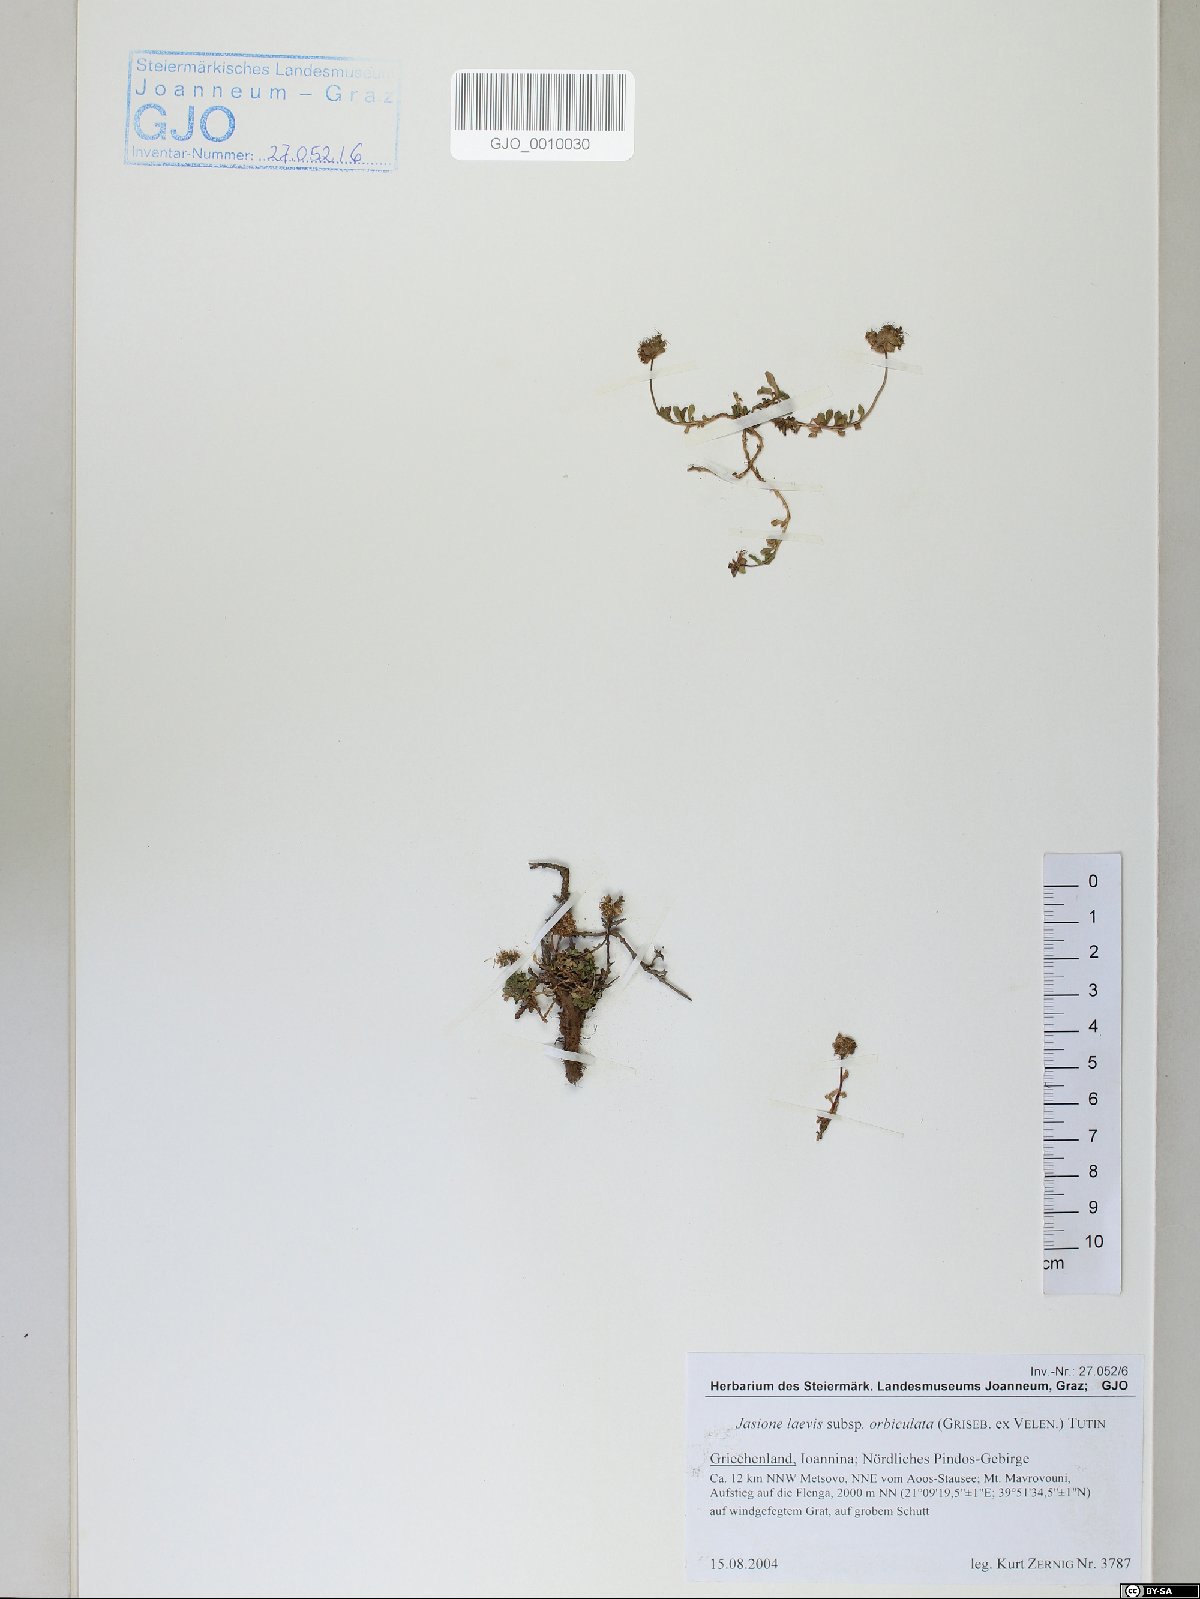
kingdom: Plantae
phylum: Tracheophyta
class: Magnoliopsida
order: Asterales
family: Campanulaceae
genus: Jasione
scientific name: Jasione orbiculata
